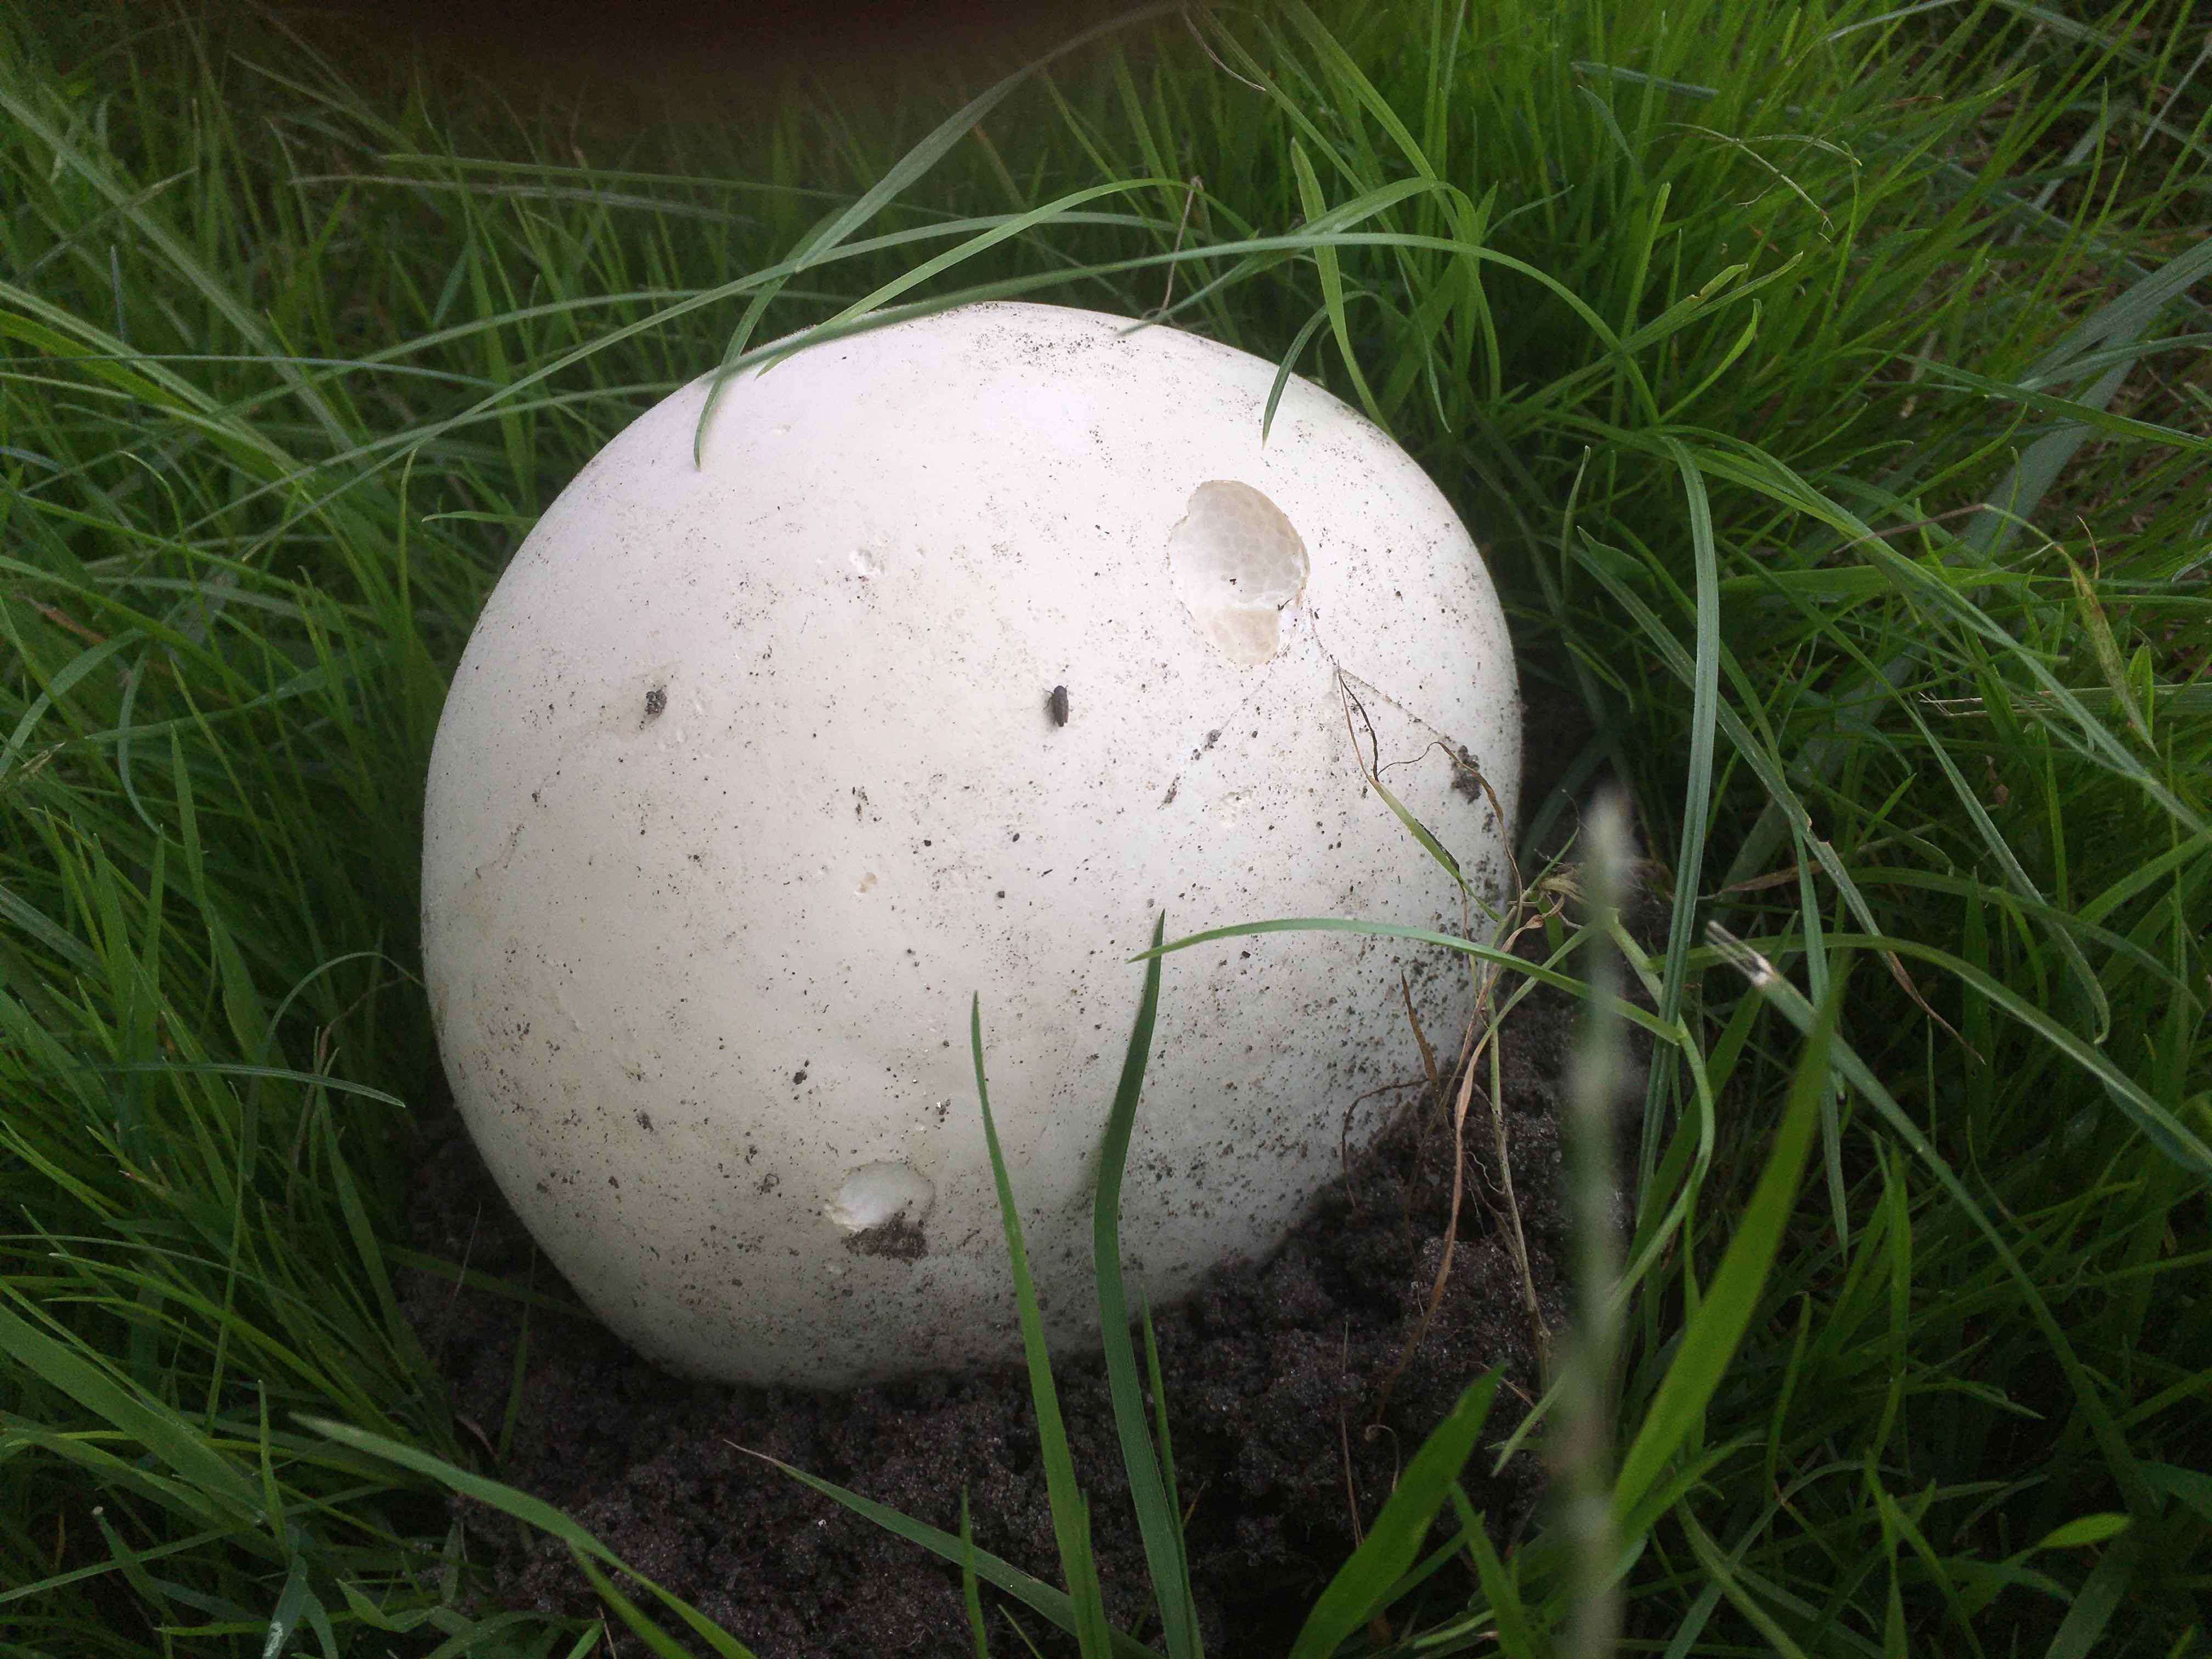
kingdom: Fungi
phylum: Basidiomycota
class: Agaricomycetes
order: Agaricales
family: Lycoperdaceae
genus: Calvatia
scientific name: Calvatia gigantea
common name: kæmpestøvbold
